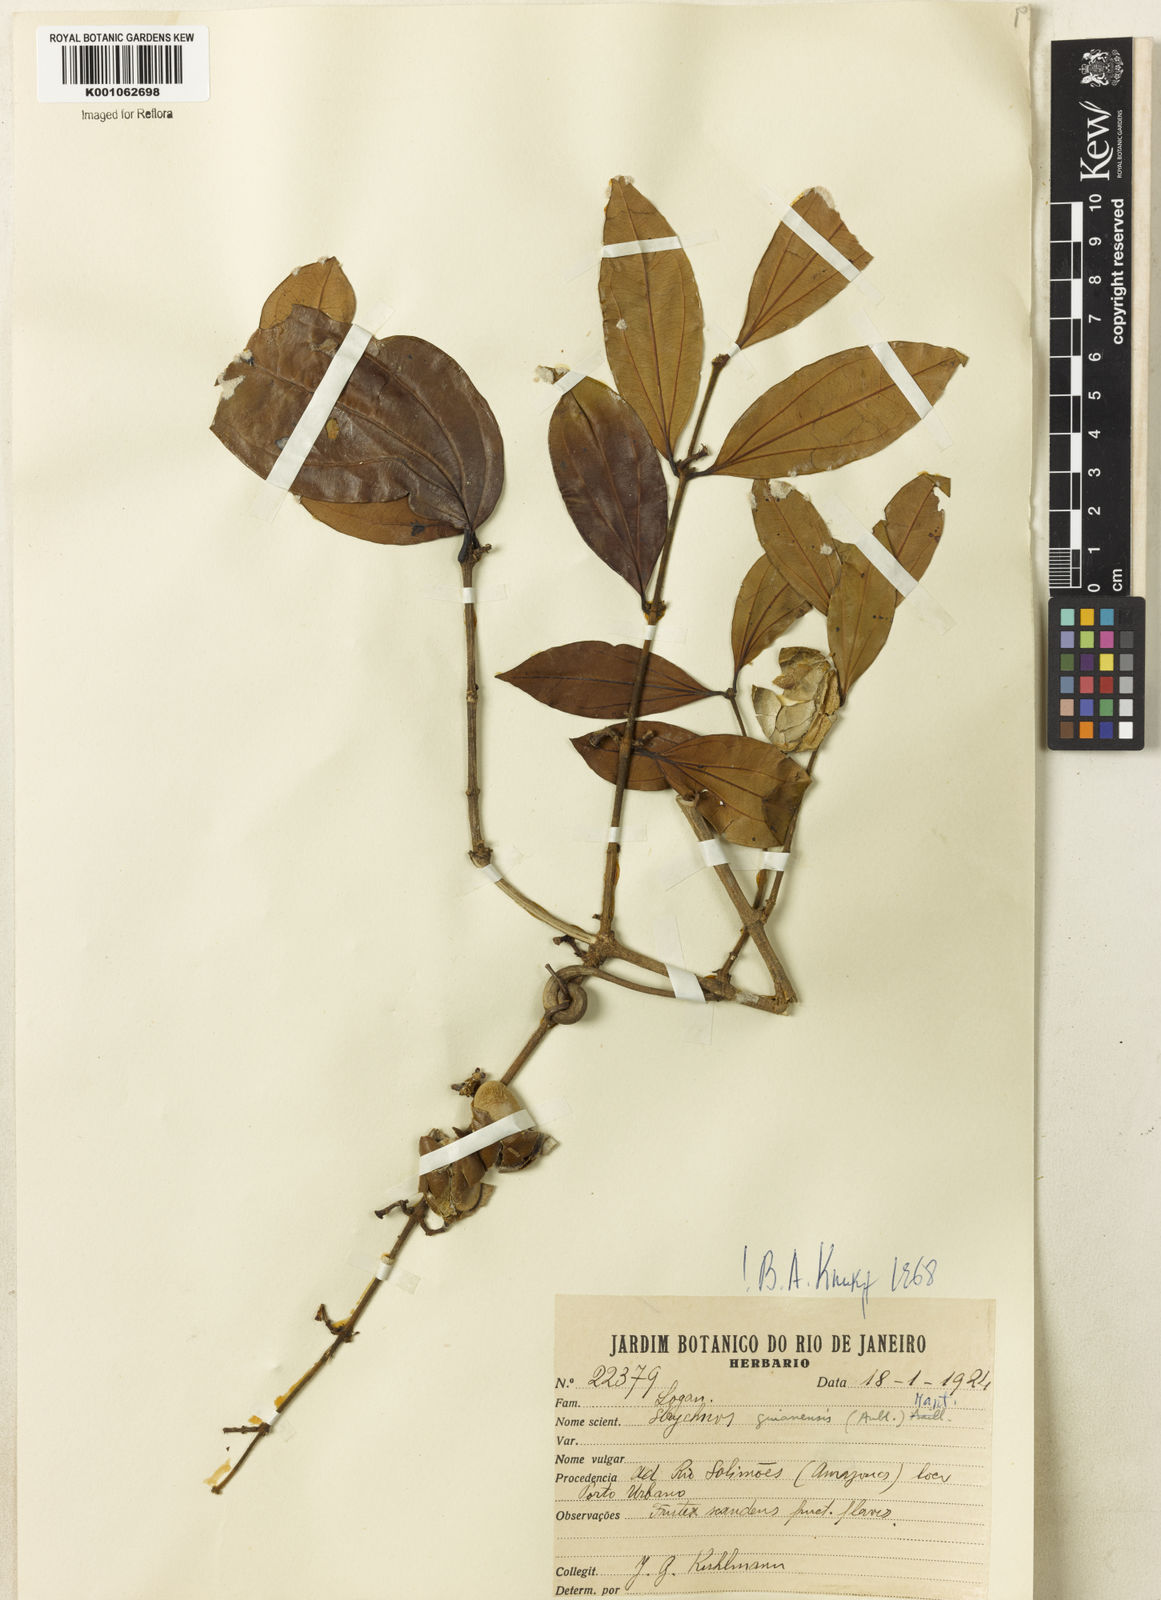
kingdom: Plantae
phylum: Tracheophyta
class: Magnoliopsida
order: Gentianales
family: Loganiaceae
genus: Strychnos
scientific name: Strychnos guianensis
